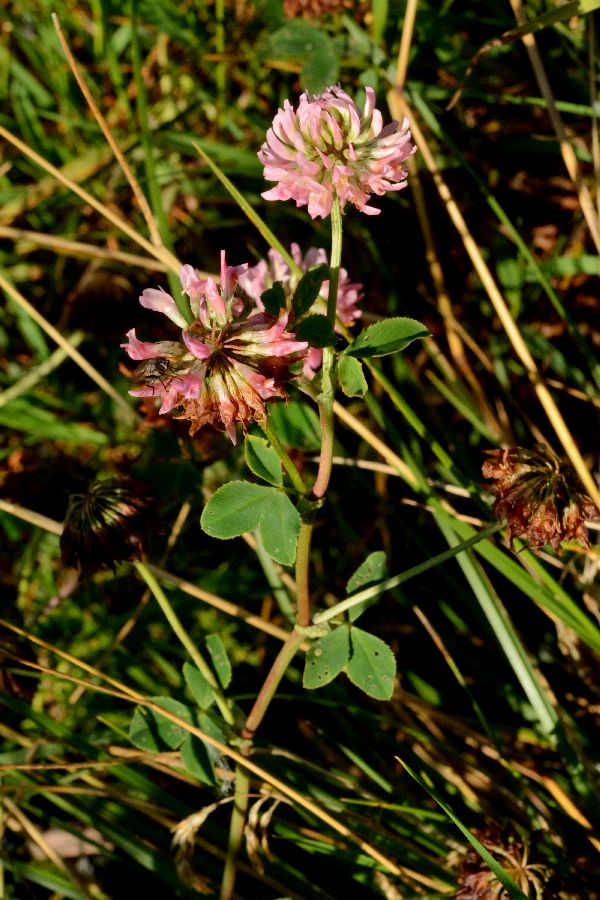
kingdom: Plantae
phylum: Tracheophyta
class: Magnoliopsida
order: Fabales
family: Fabaceae
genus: Trifolium
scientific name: Trifolium hybridum
